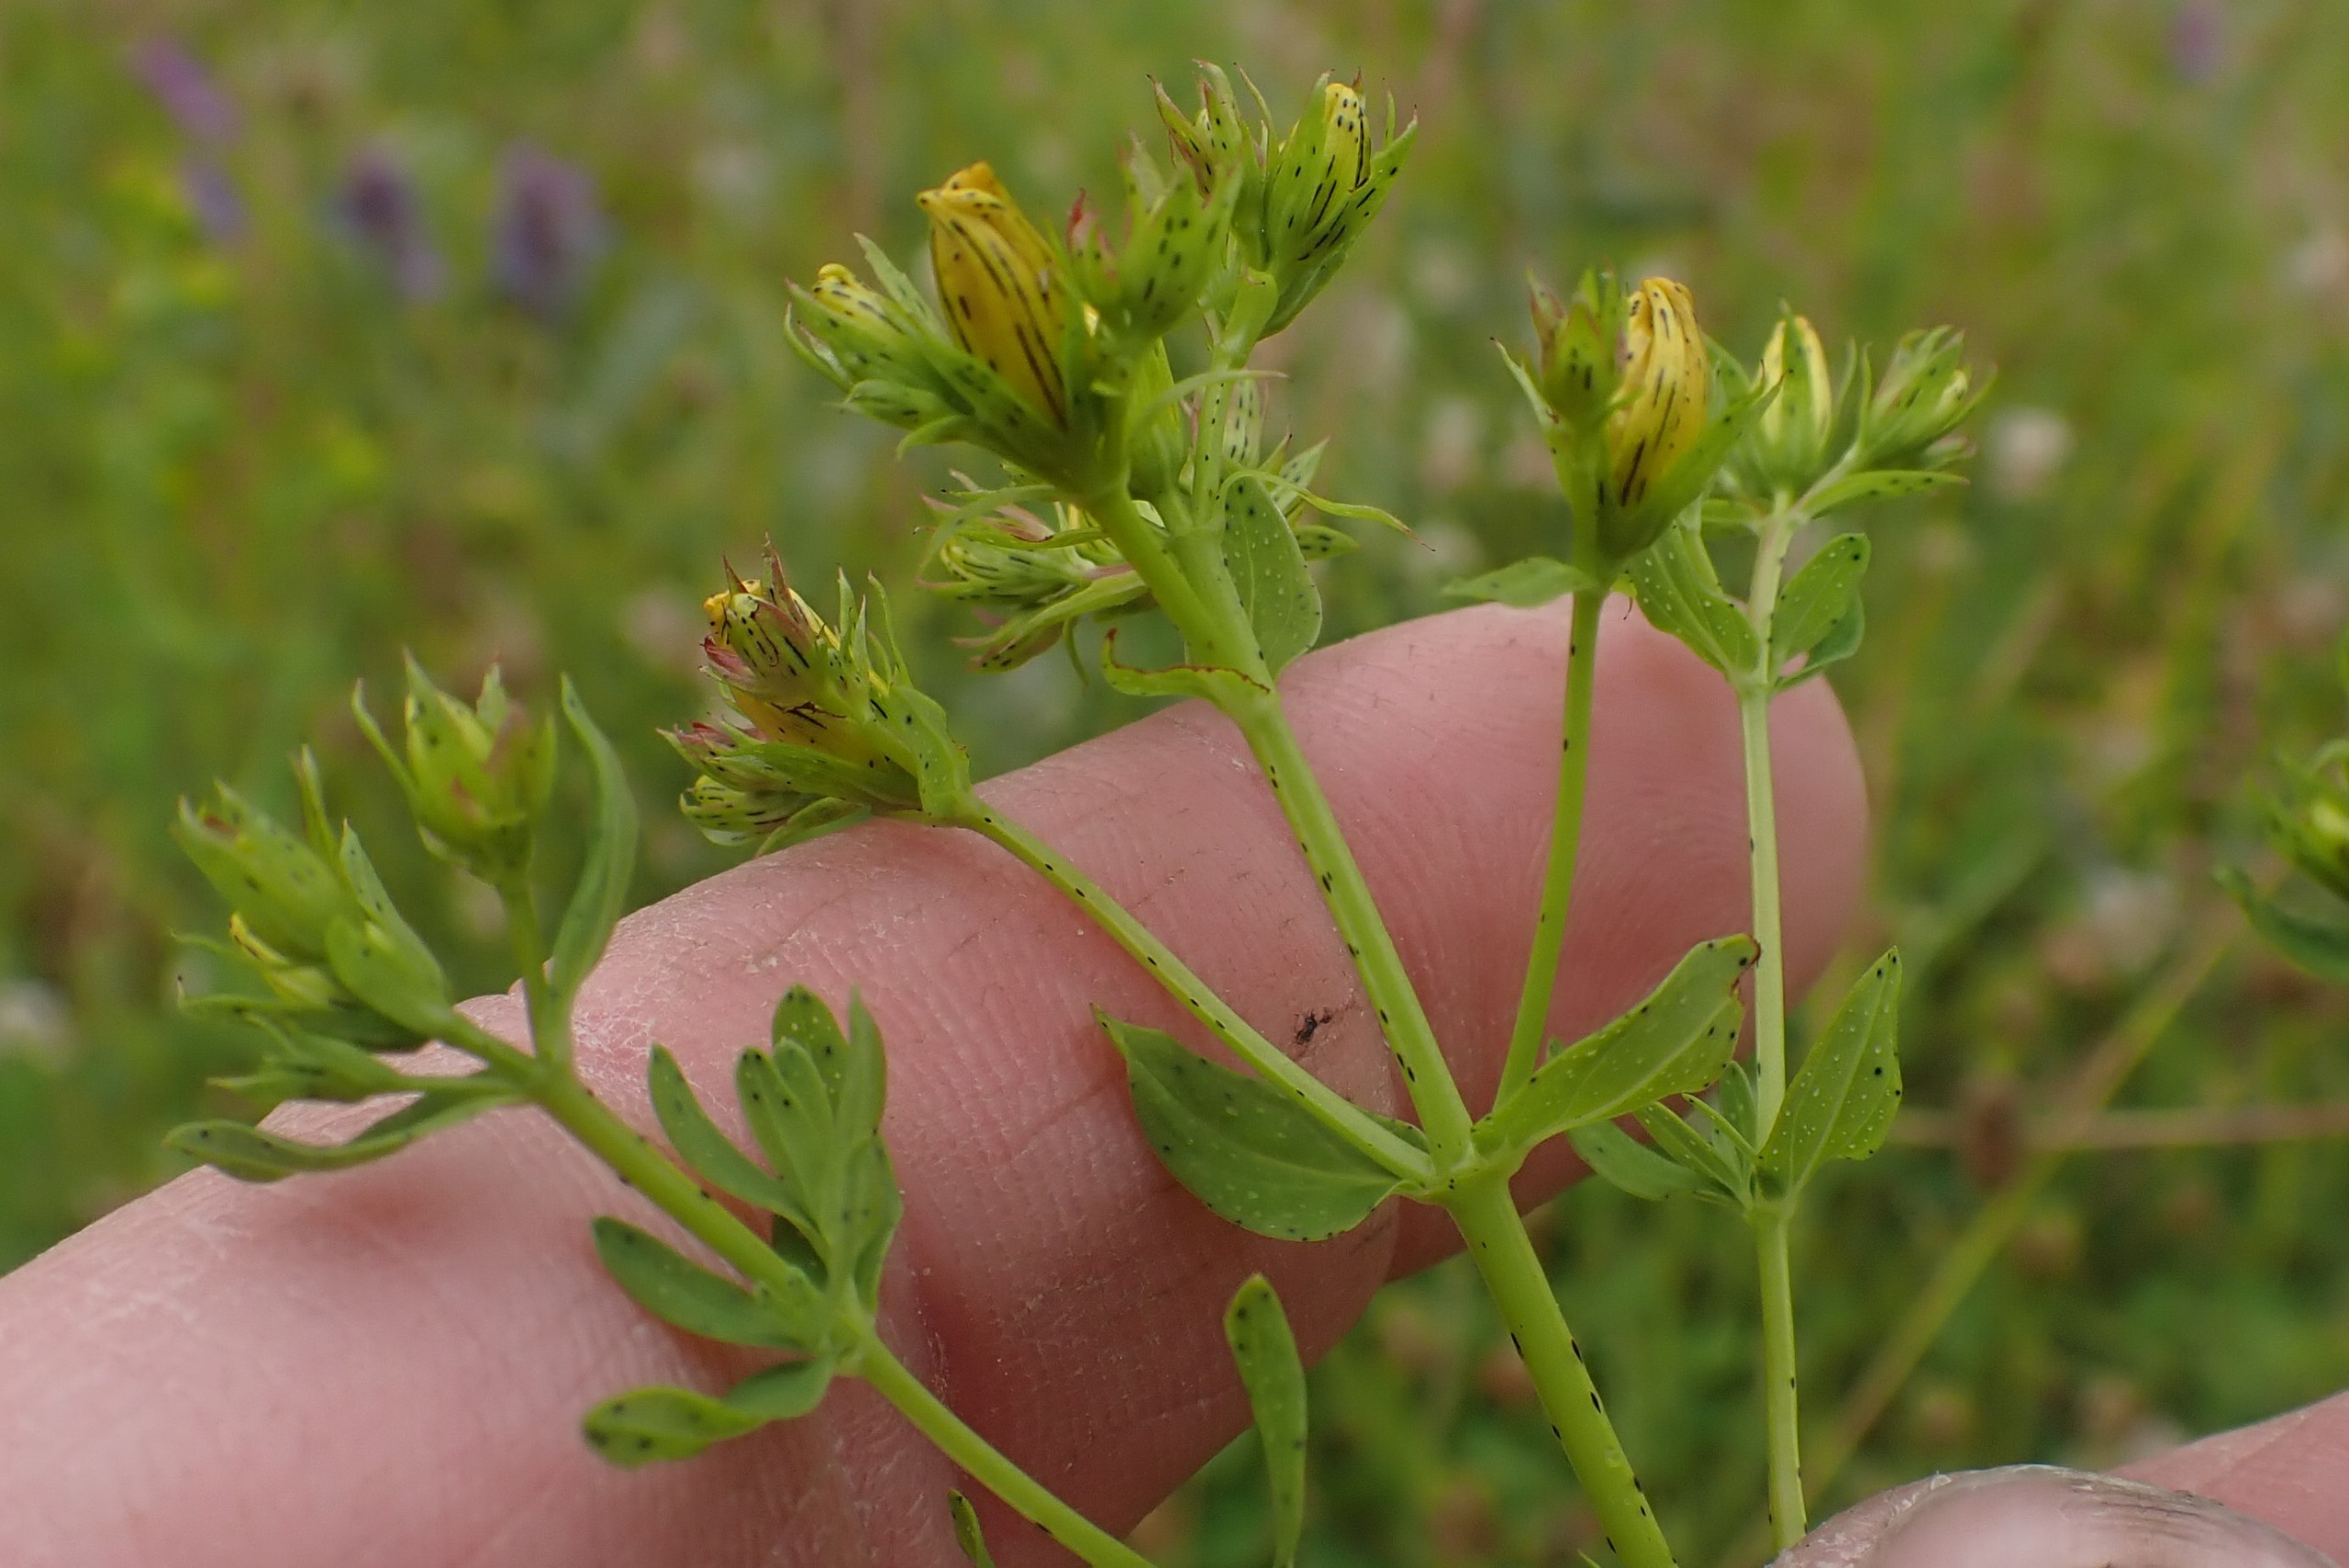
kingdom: Plantae
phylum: Tracheophyta
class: Magnoliopsida
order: Malpighiales
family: Hypericaceae
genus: Hypericum
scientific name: Hypericum perforatum
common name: Prikbladet perikon
